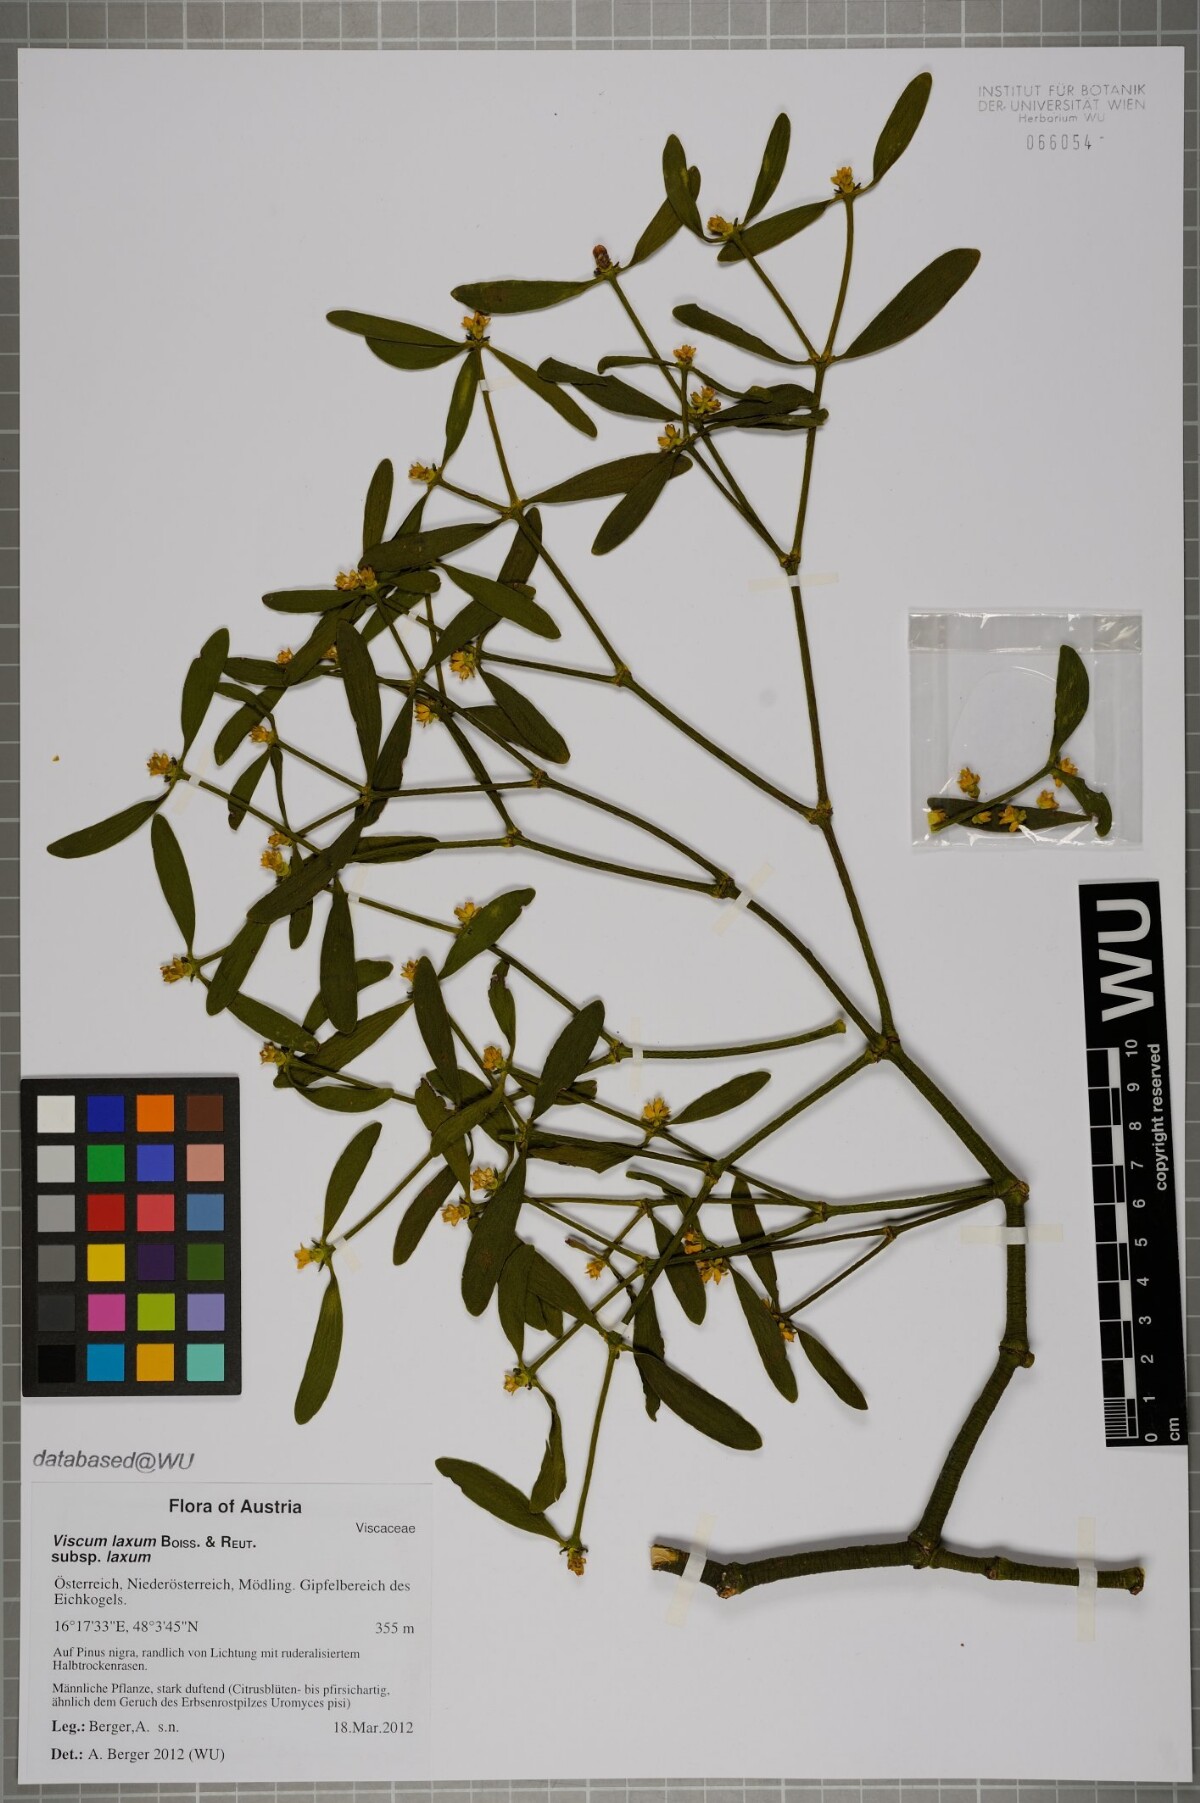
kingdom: Plantae
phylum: Tracheophyta
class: Magnoliopsida
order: Santalales
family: Viscaceae
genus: Viscum
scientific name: Viscum laxum
